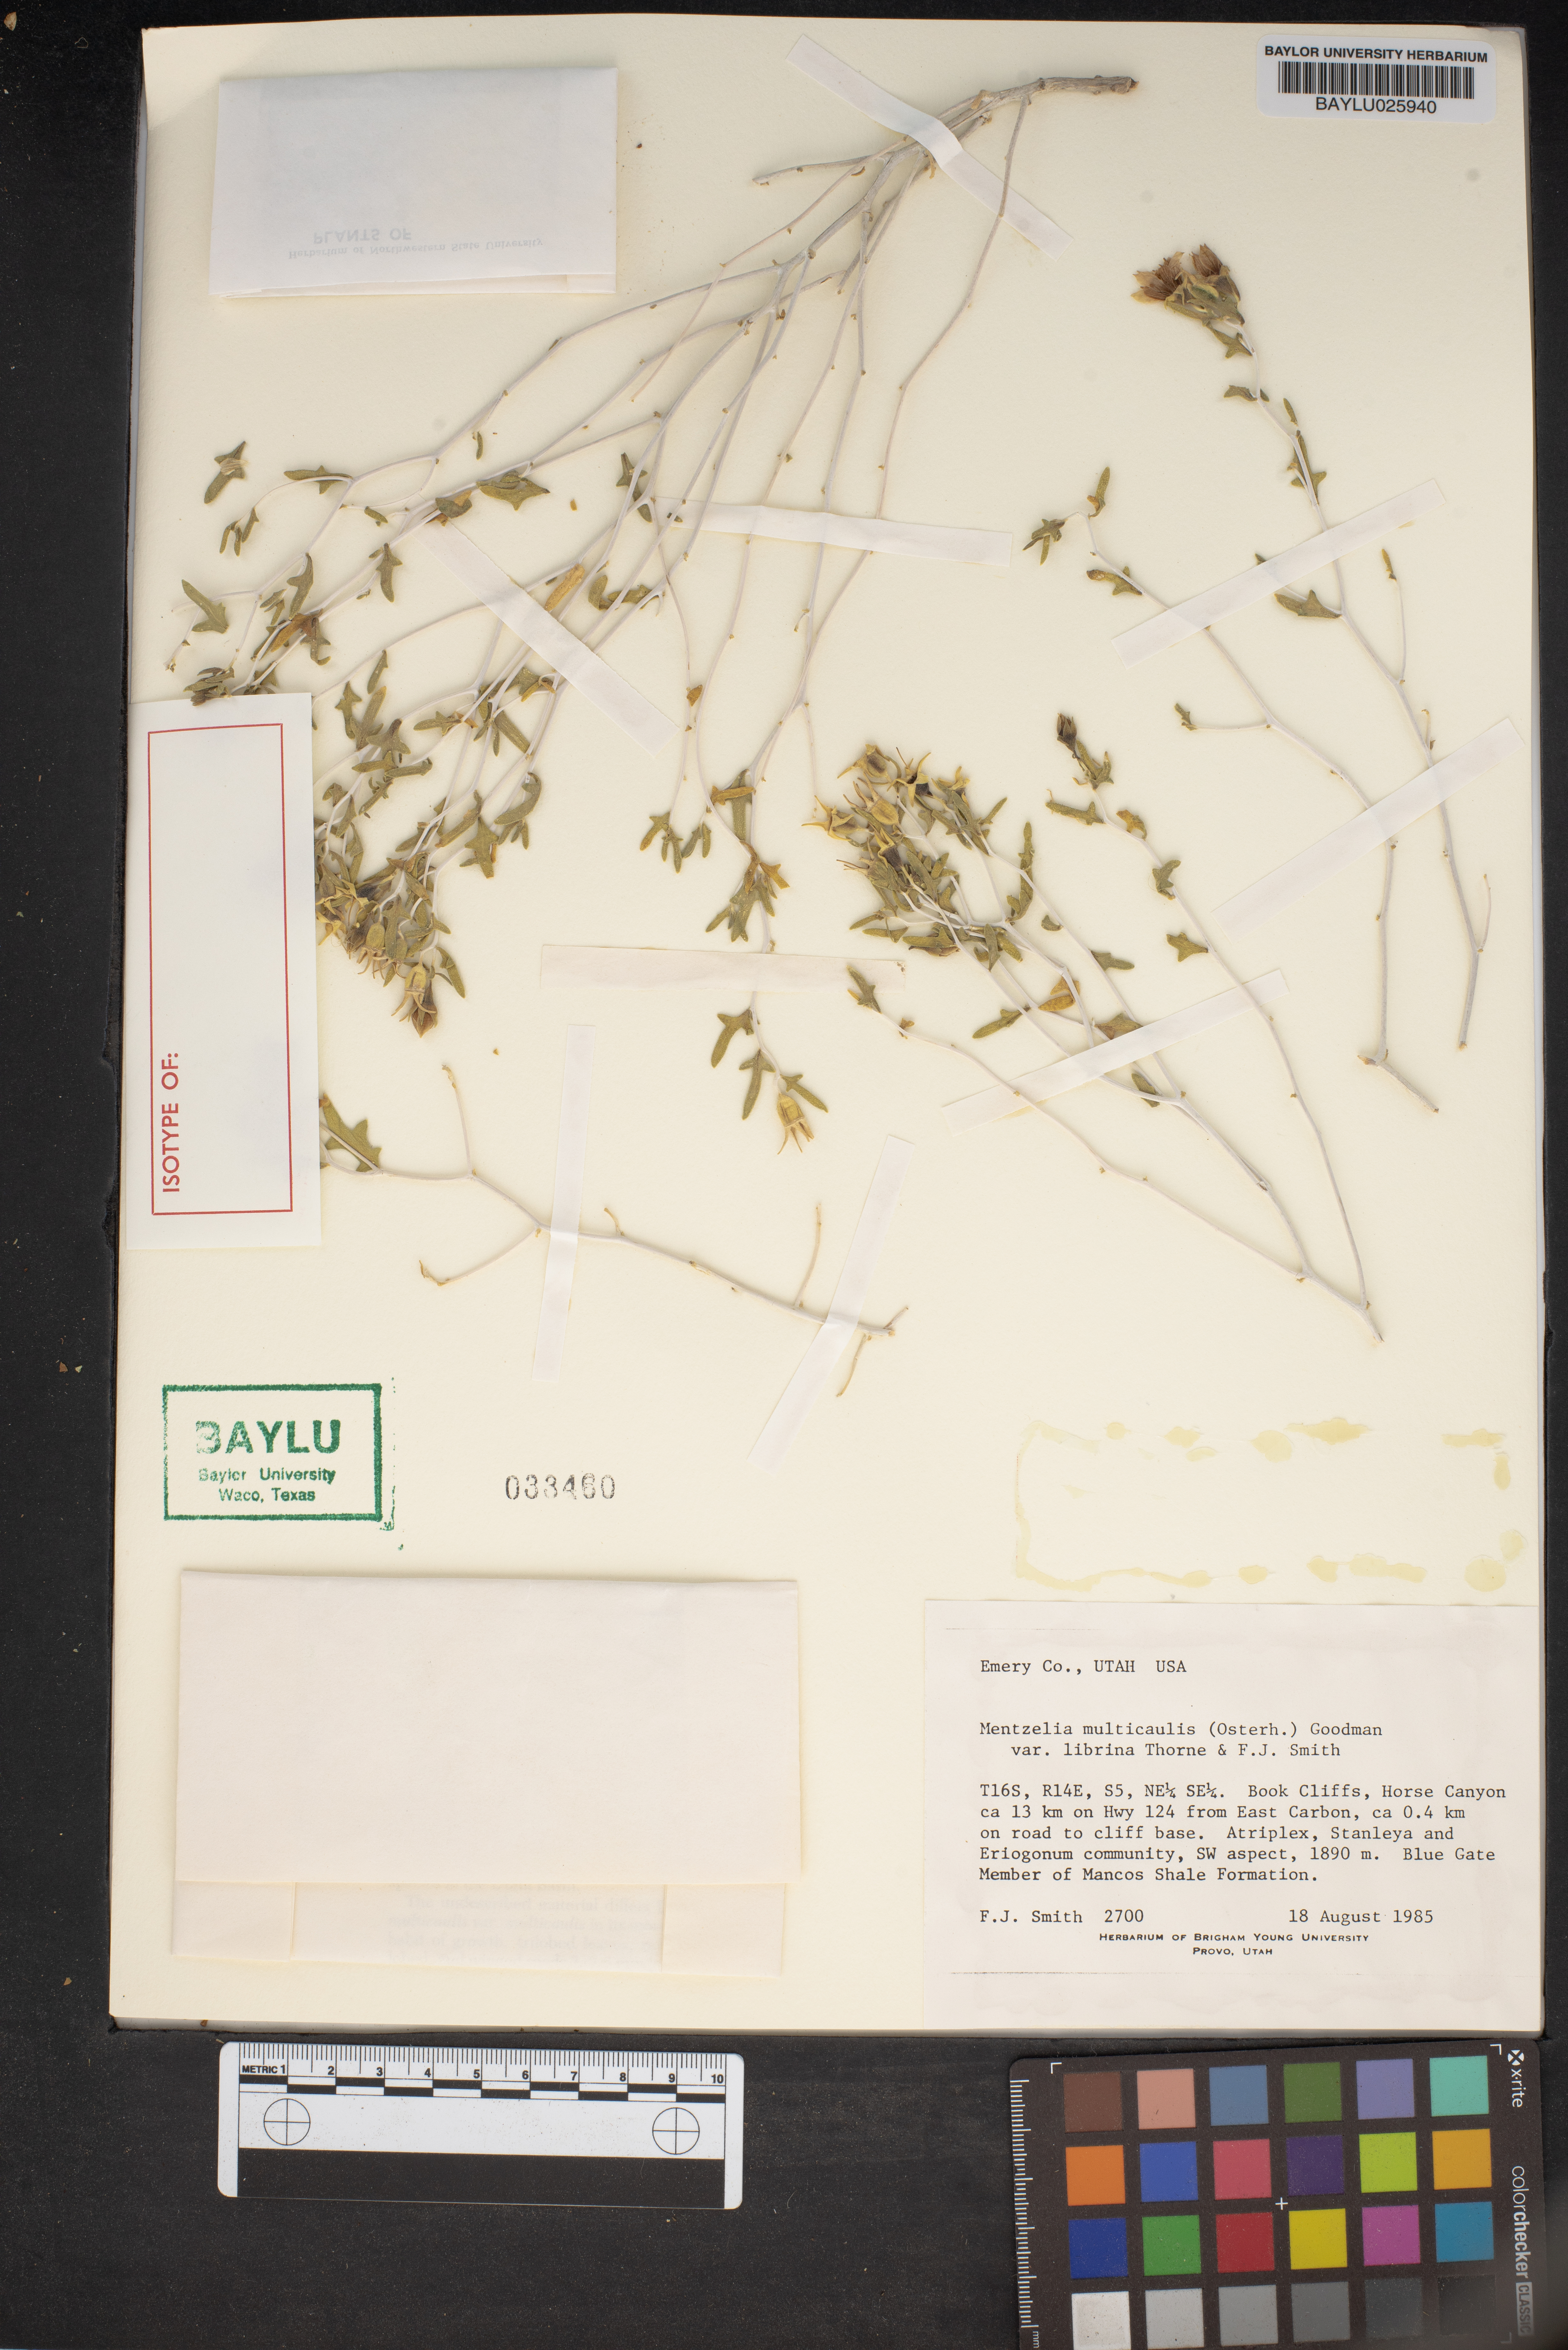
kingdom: Plantae
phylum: Tracheophyta
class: Magnoliopsida
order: Cornales
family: Loasaceae
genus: Mentzelia
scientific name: Mentzelia librina
